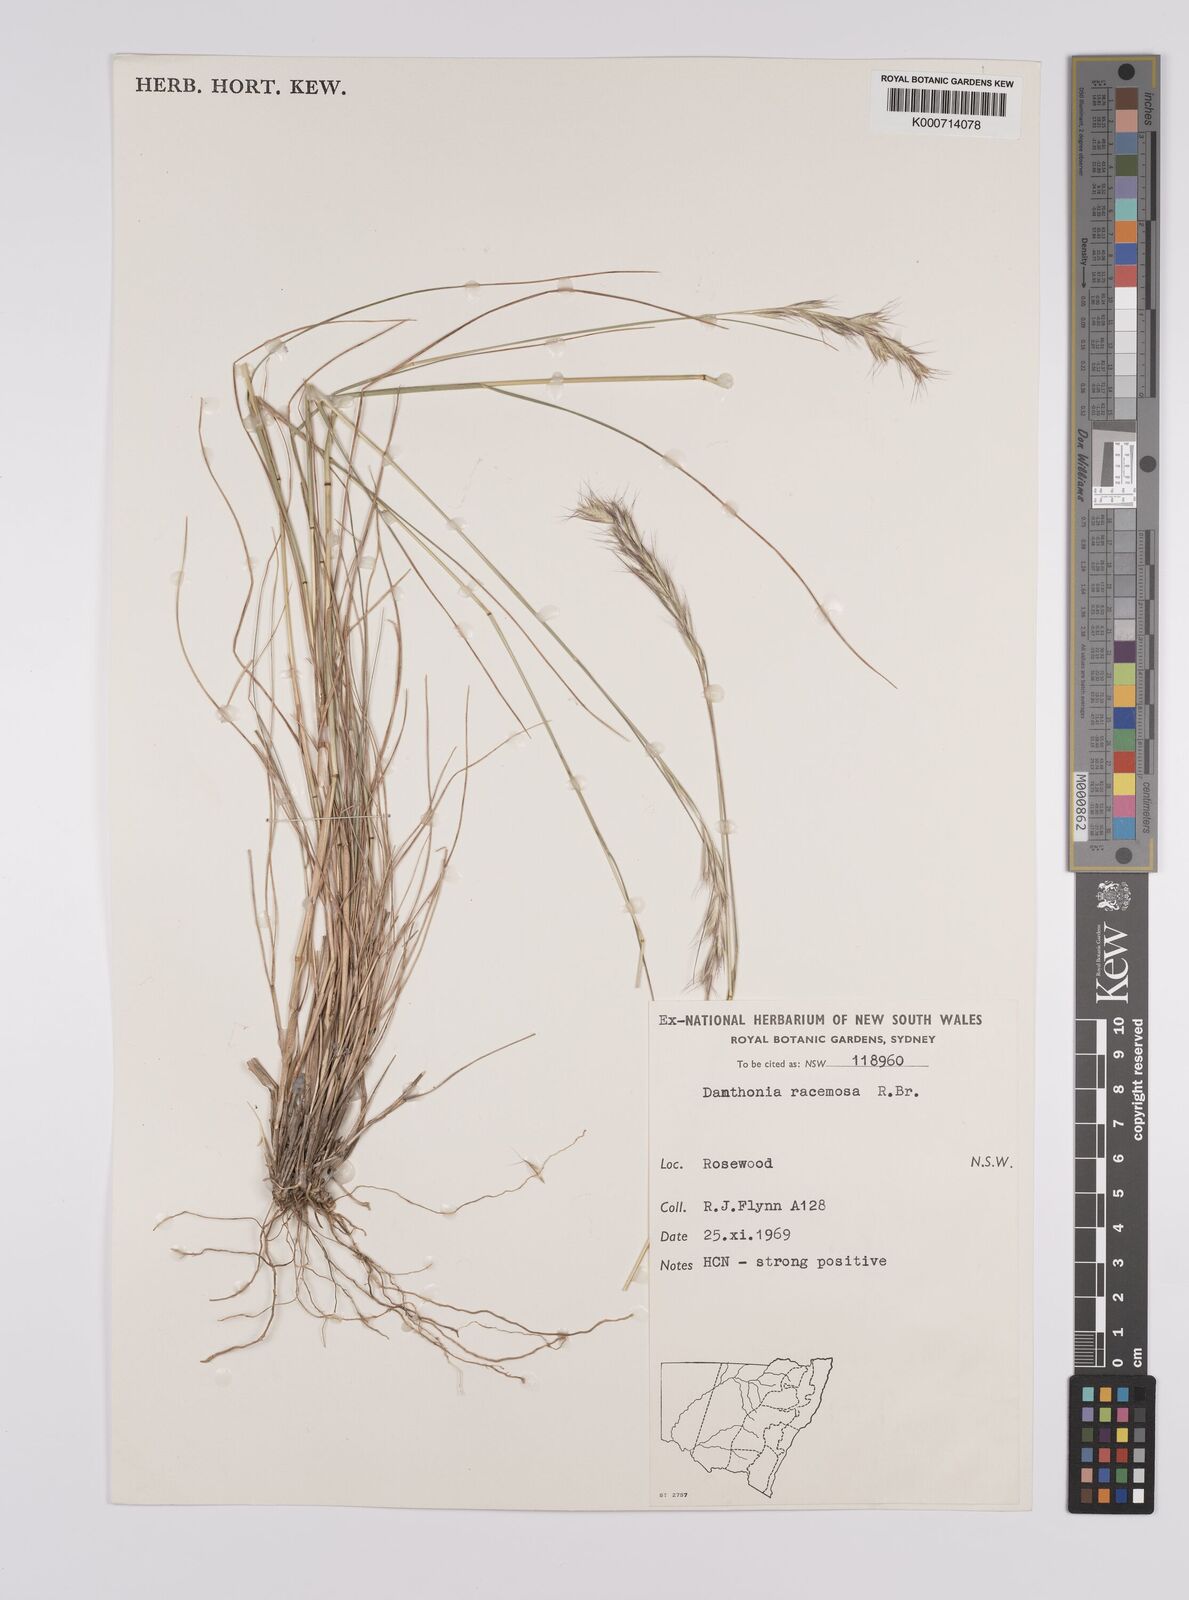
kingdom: Plantae
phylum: Tracheophyta
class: Liliopsida
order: Poales
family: Poaceae
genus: Rytidosperma
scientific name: Rytidosperma racemosum
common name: Wallaby-grass
